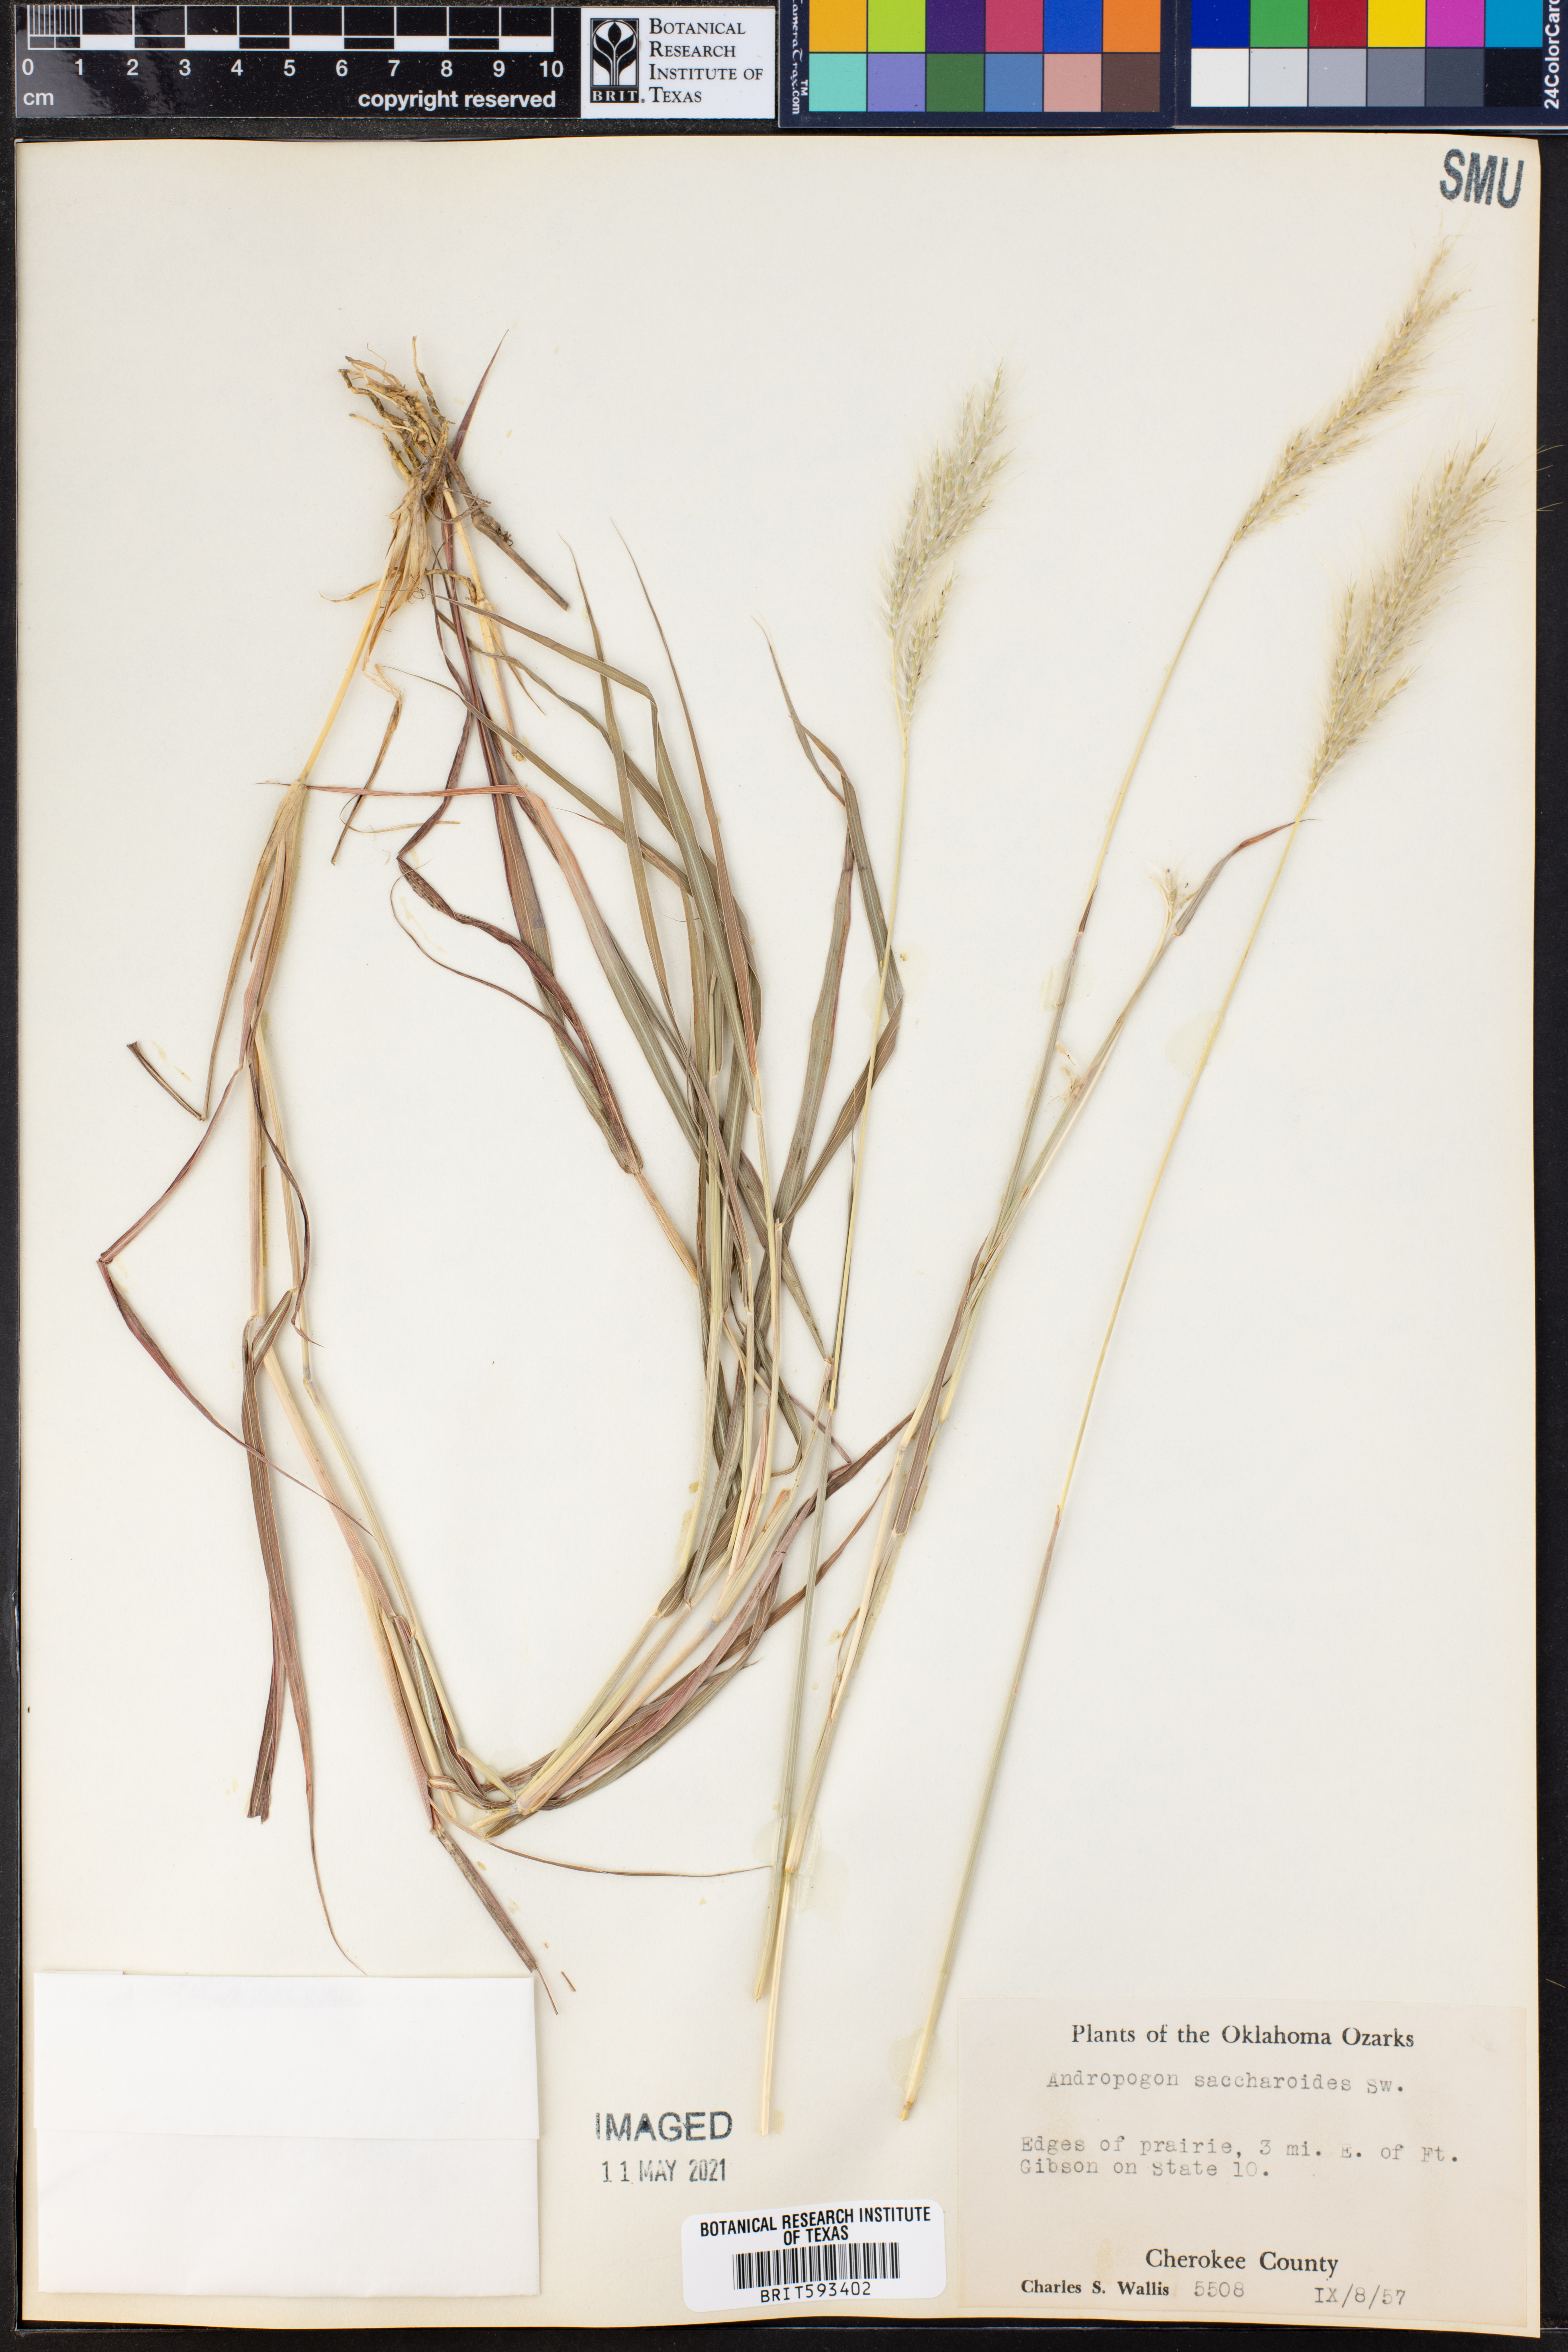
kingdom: Plantae
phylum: Tracheophyta
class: Liliopsida
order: Poales
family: Poaceae
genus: Bothriochloa
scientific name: Bothriochloa saccharoides
